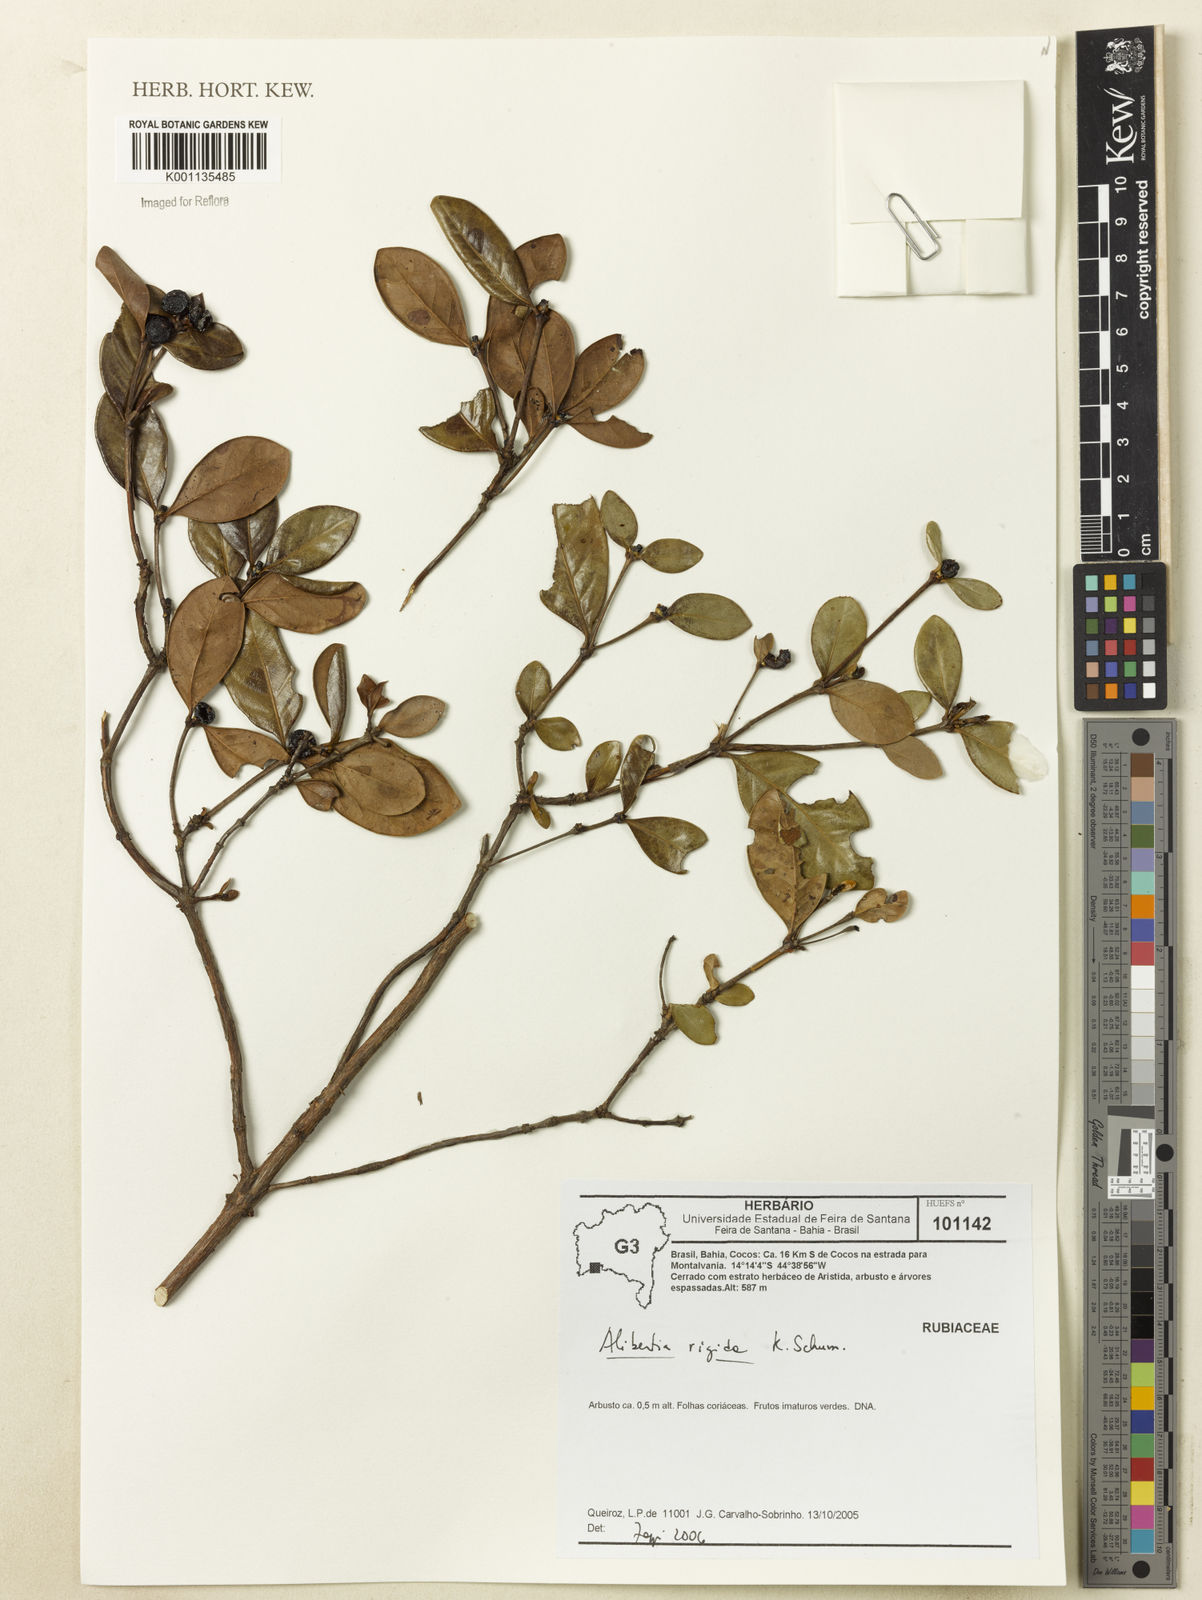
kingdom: Plantae
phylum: Tracheophyta
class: Magnoliopsida
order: Gentianales
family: Rubiaceae
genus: Cordiera
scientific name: Cordiera rigida
